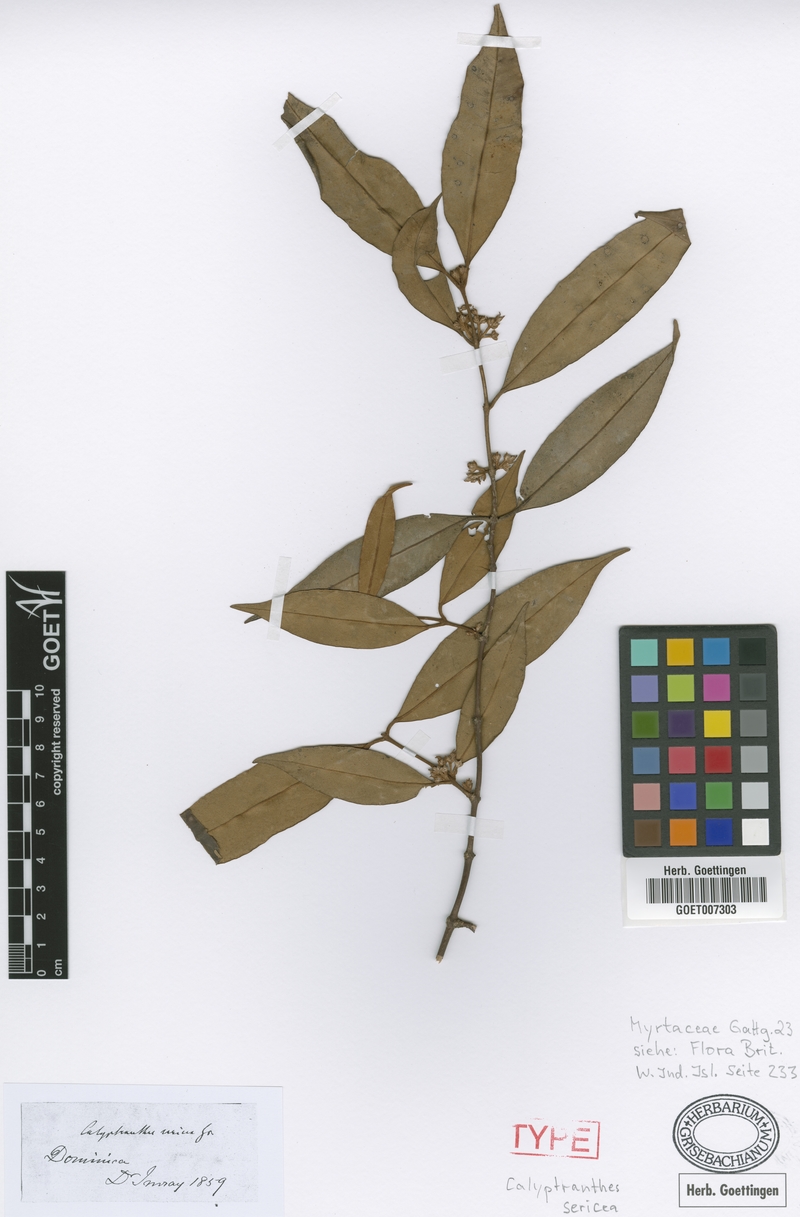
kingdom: Plantae
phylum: Tracheophyta
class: Magnoliopsida
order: Myrtales
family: Myrtaceae
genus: Myrcia
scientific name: Myrcia fasciculata
